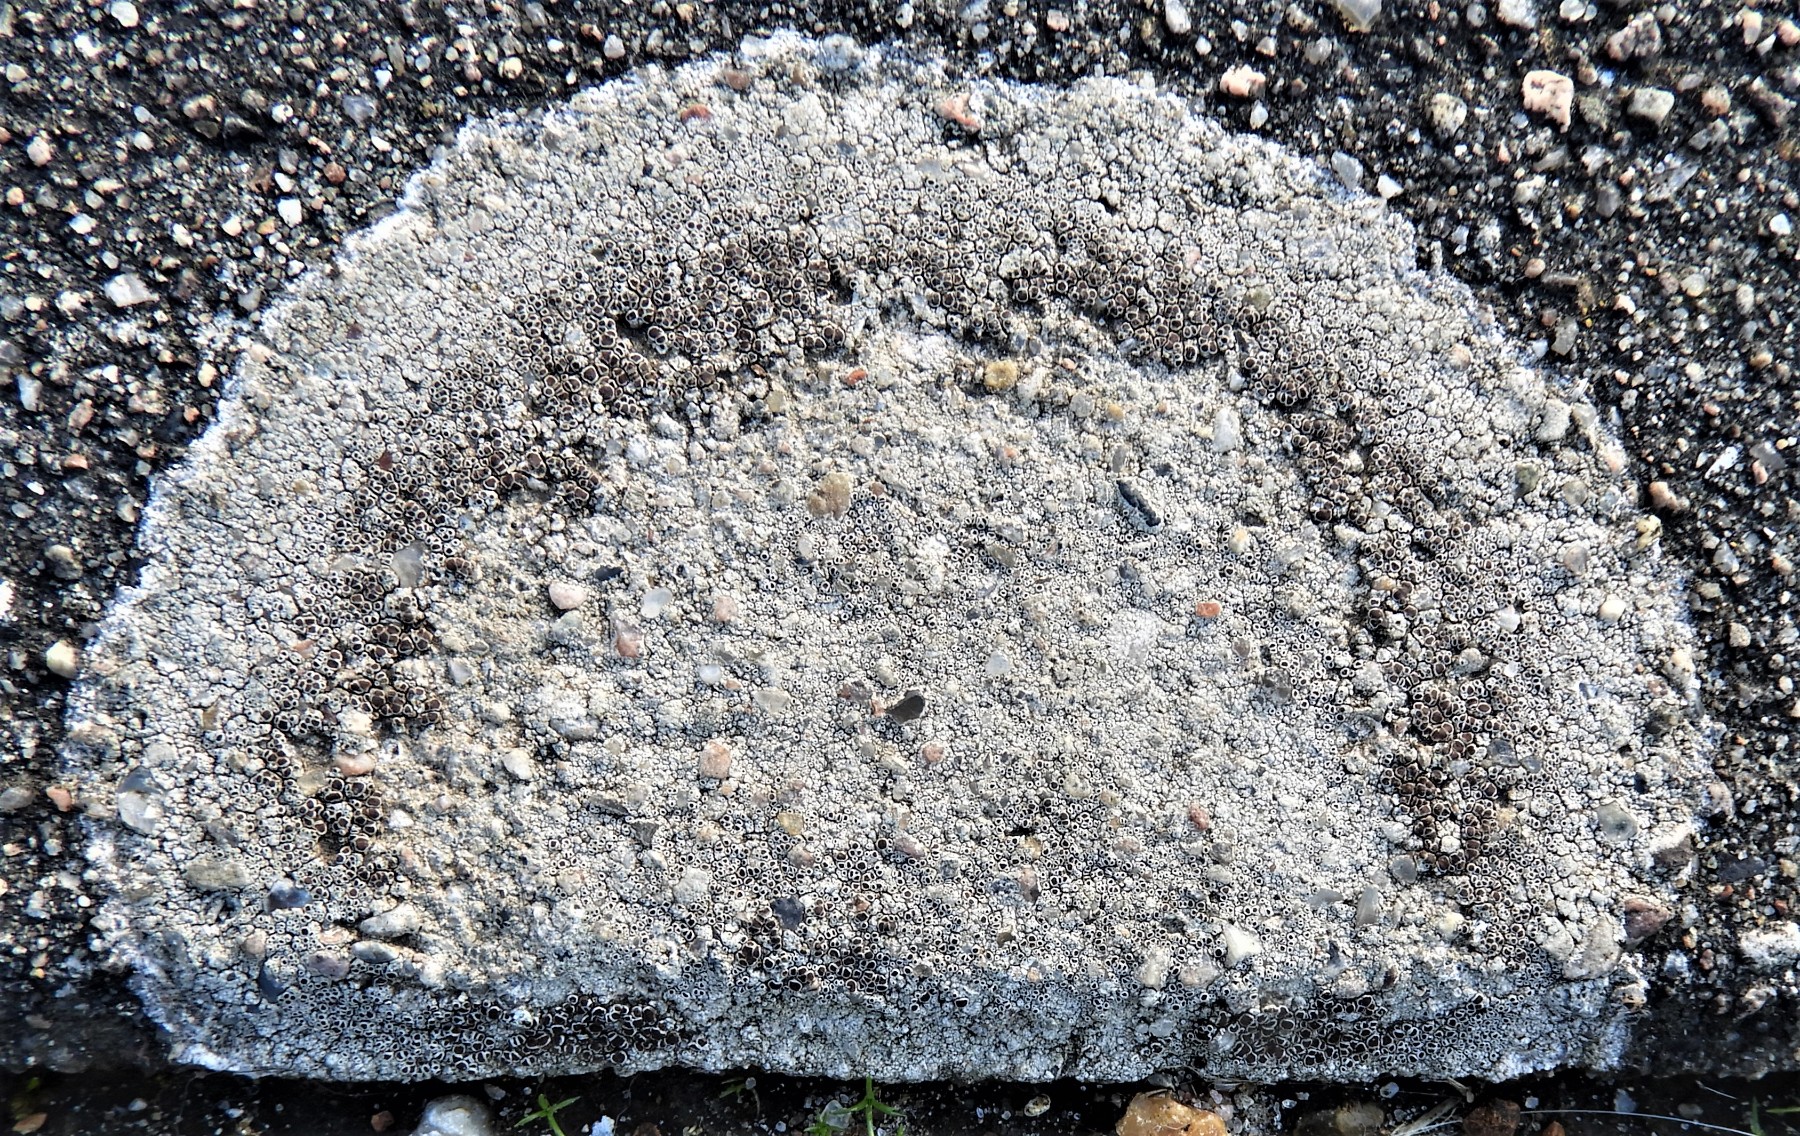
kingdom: Fungi
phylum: Ascomycota
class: Lecanoromycetes
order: Lecanorales
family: Lecanoraceae
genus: Lecanora
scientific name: Lecanora campestris
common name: mur-kantskivelav
